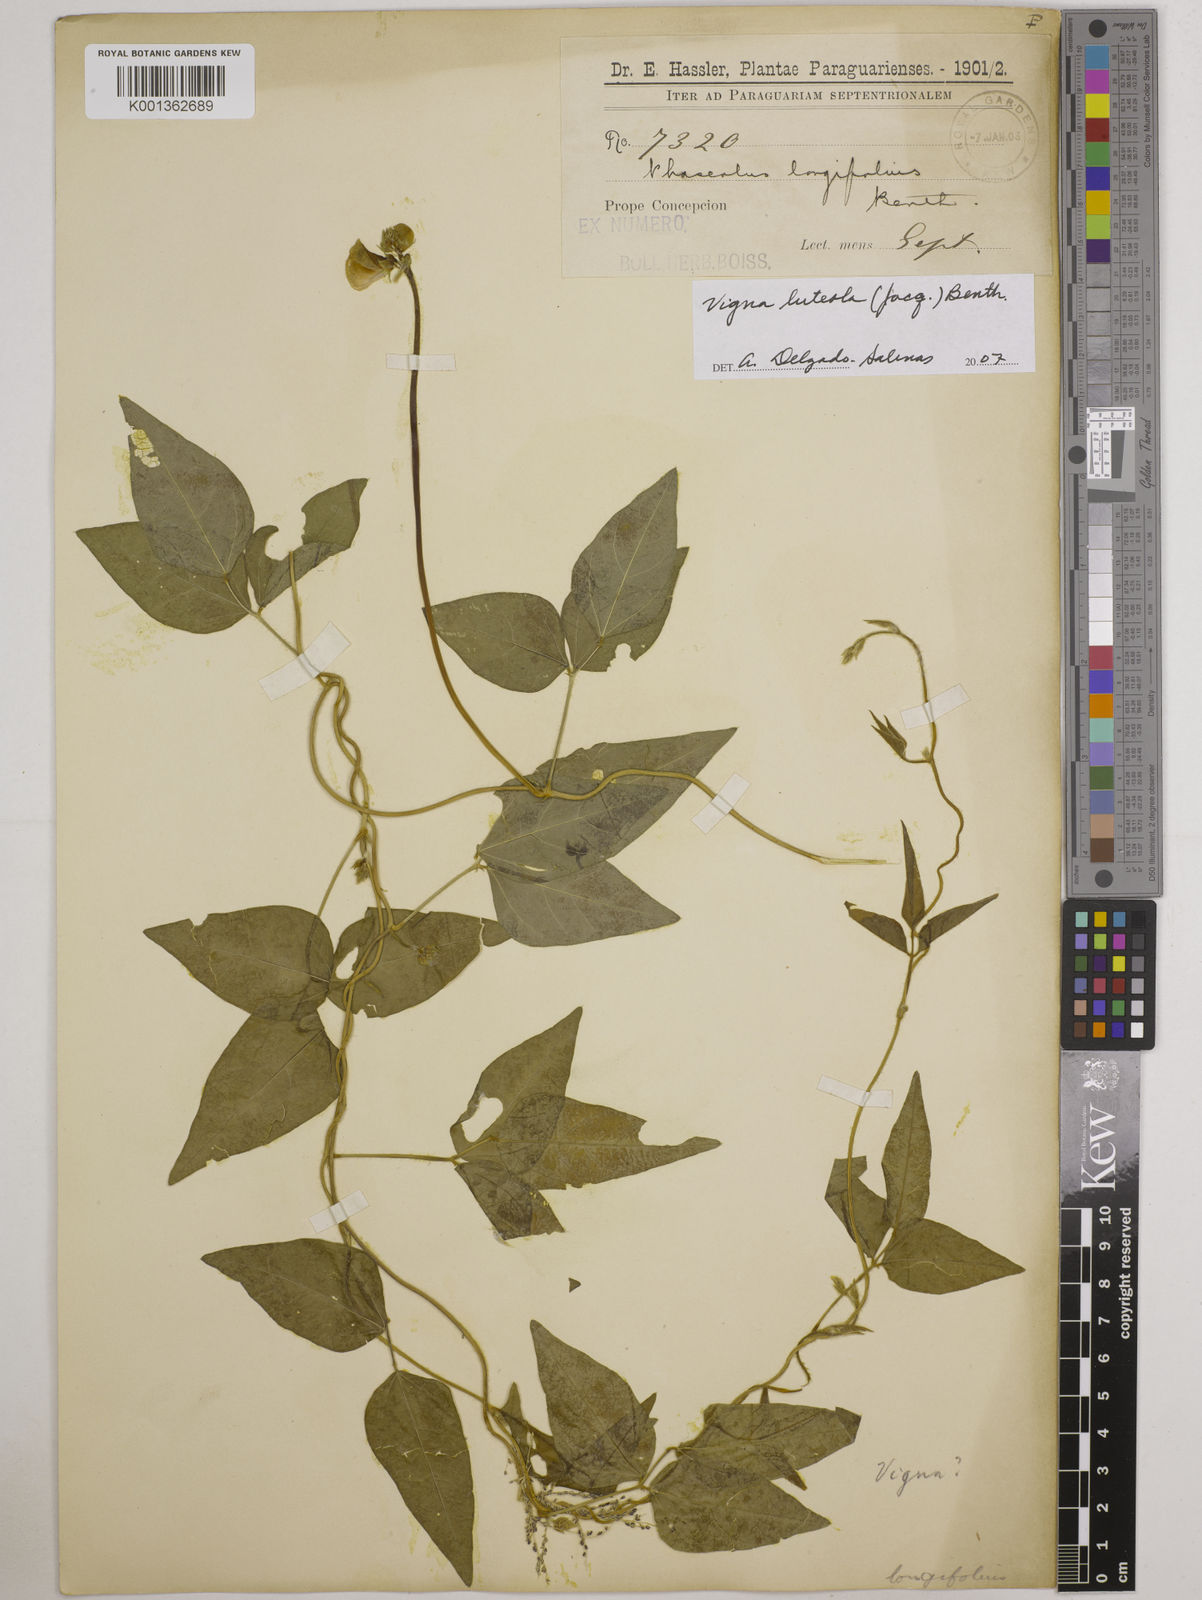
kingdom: Plantae
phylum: Tracheophyta
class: Magnoliopsida
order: Fabales
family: Fabaceae
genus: Vigna
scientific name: Vigna luteola
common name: Hairypod cowpea
